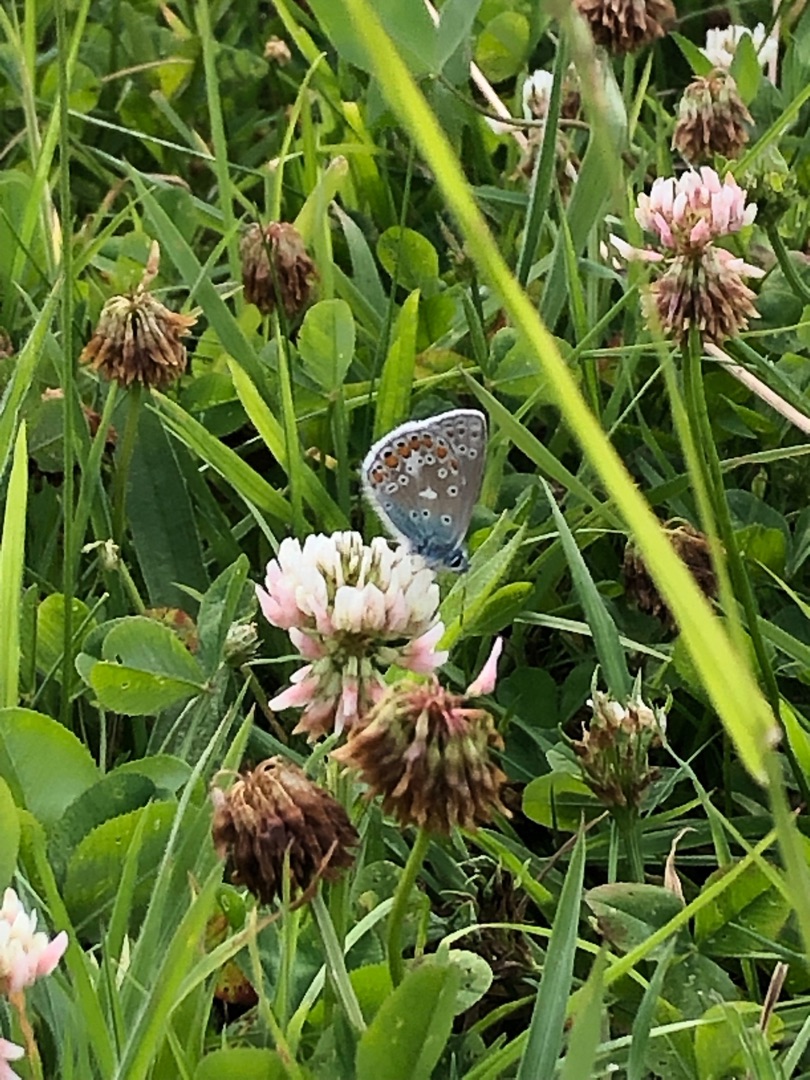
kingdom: Animalia
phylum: Arthropoda
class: Insecta
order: Lepidoptera
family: Lycaenidae
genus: Polyommatus
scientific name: Polyommatus icarus
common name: Almindelig blåfugl
